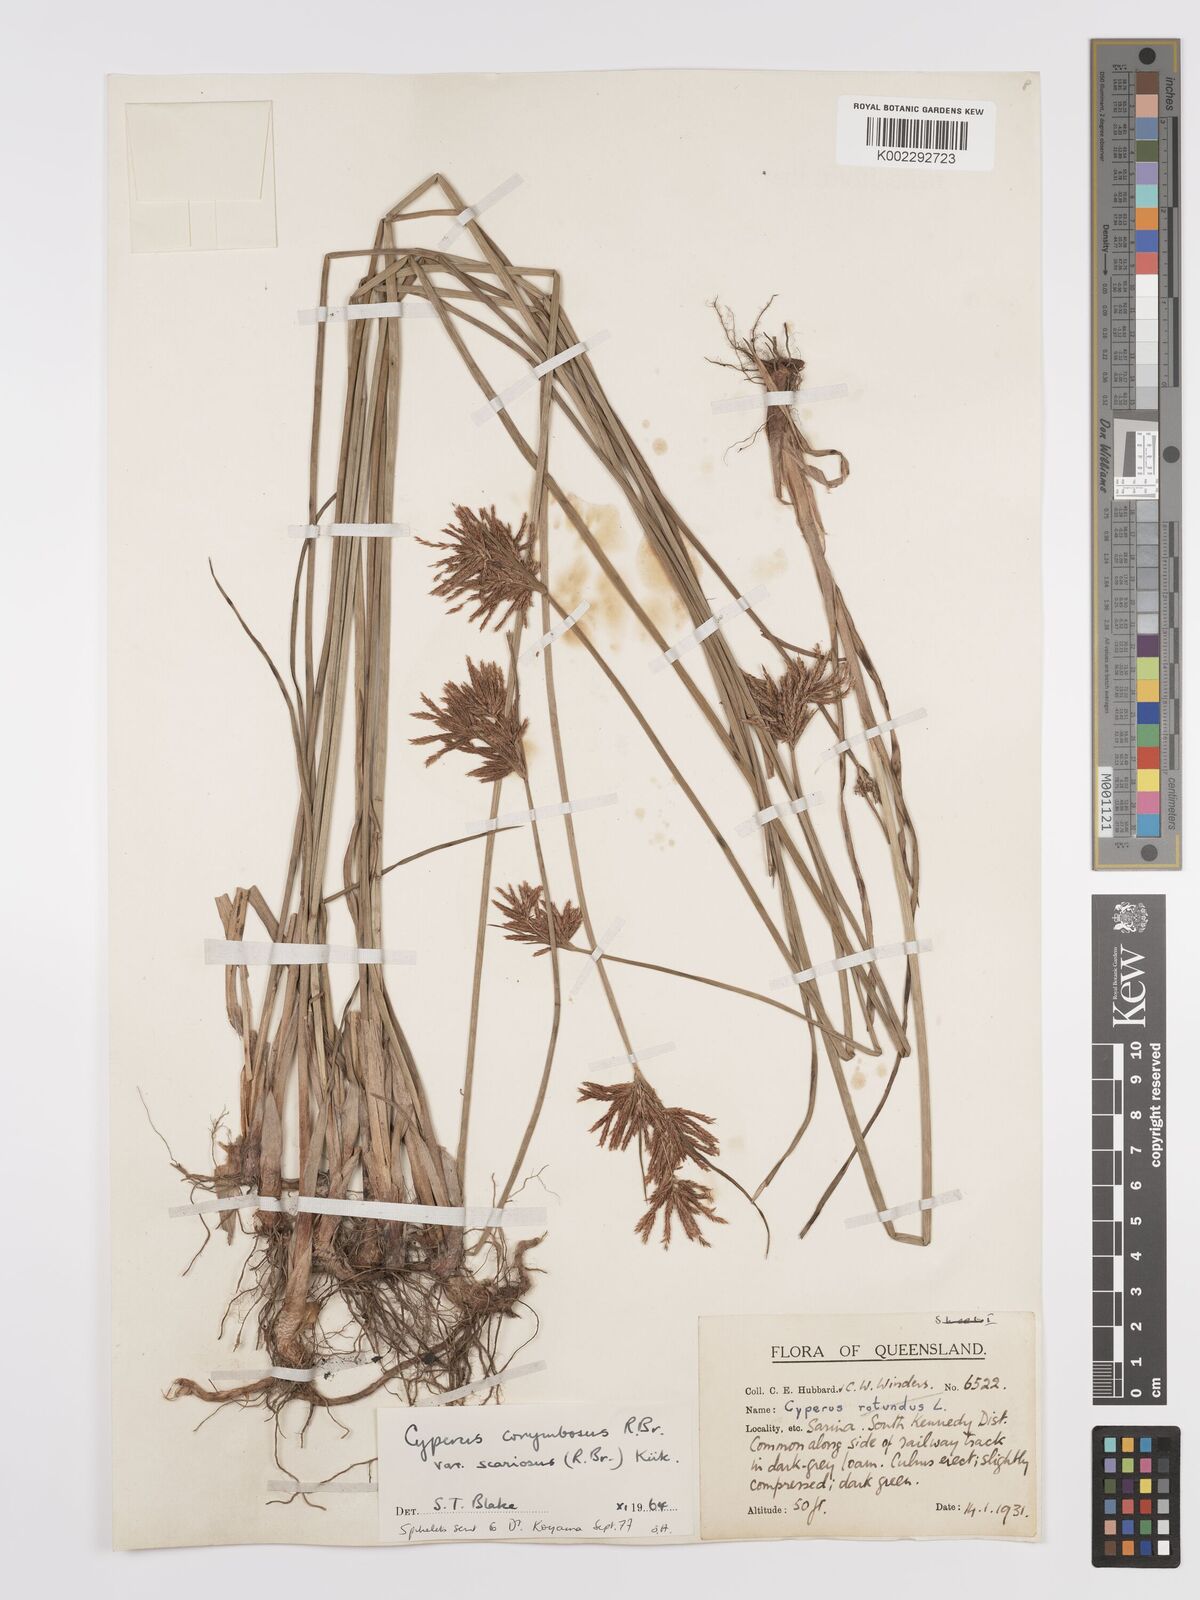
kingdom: Plantae
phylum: Tracheophyta
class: Liliopsida
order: Poales
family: Cyperaceae
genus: Cyperus
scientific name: Cyperus scariosus
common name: Cypriol
